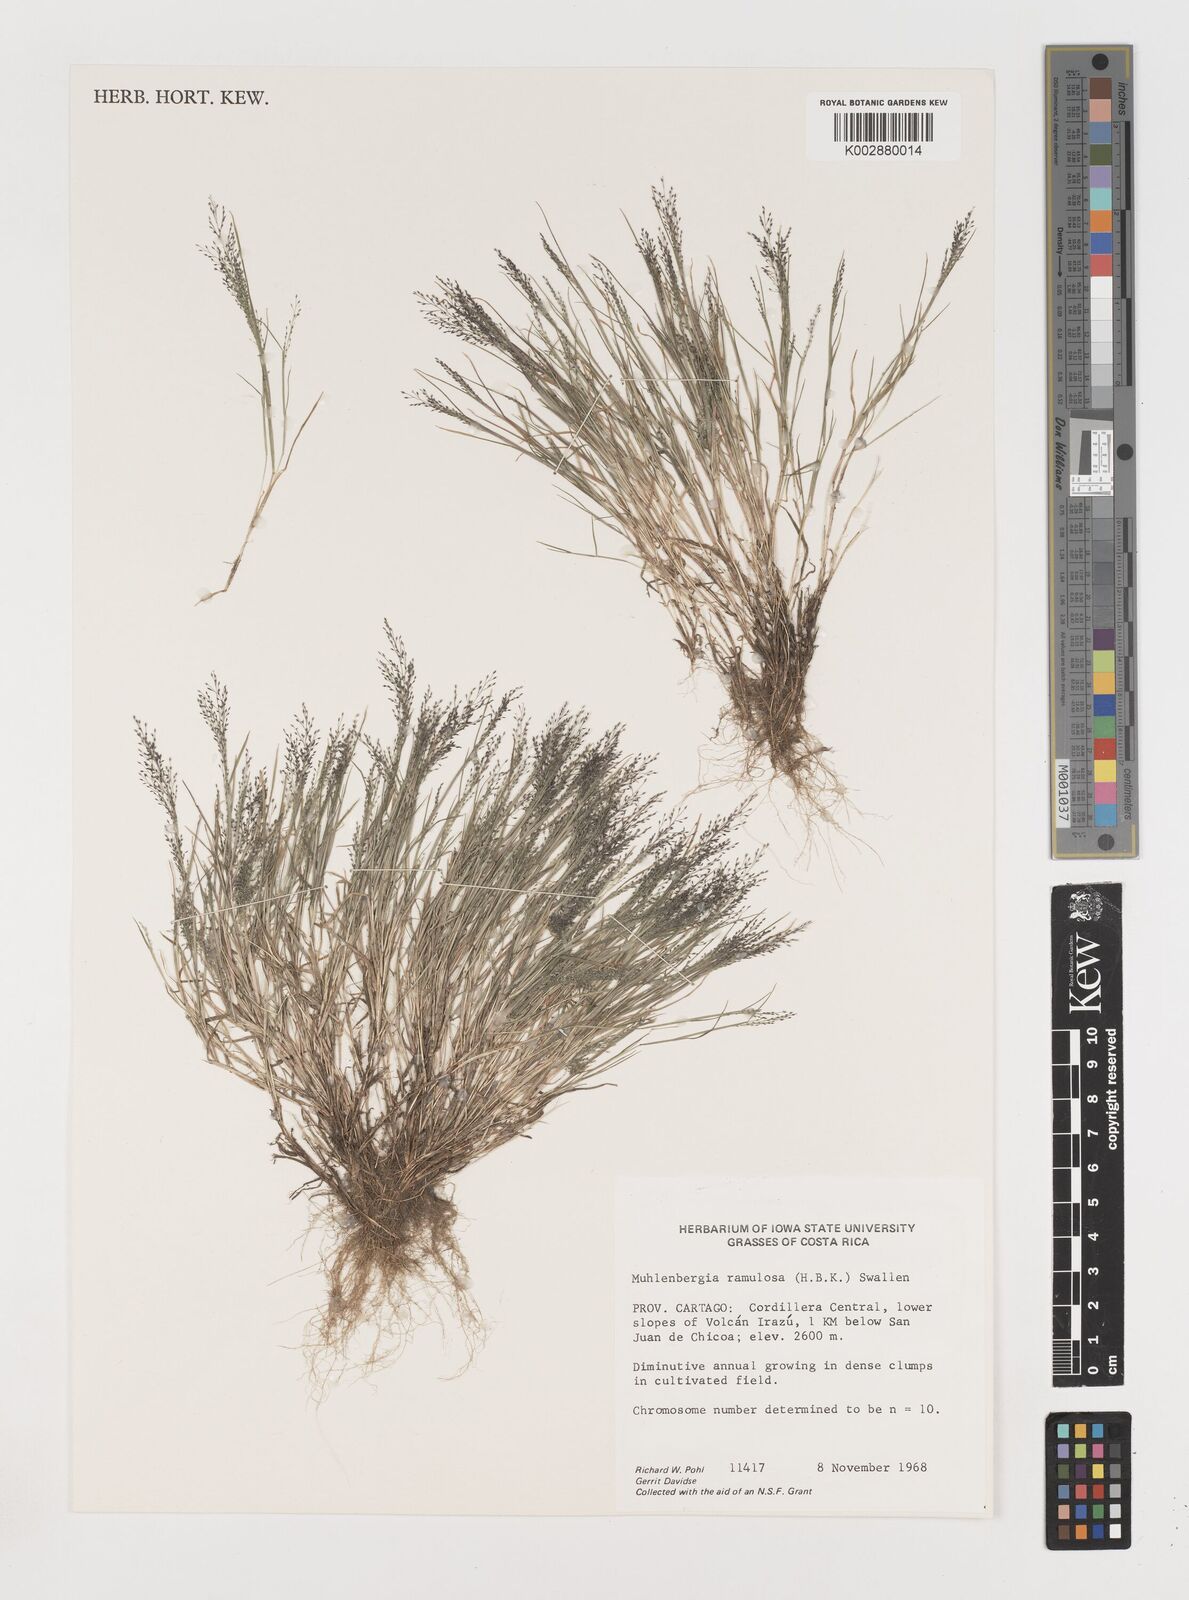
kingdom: Plantae
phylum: Tracheophyta
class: Liliopsida
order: Poales
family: Poaceae
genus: Muhlenbergia
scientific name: Muhlenbergia ramulosa
